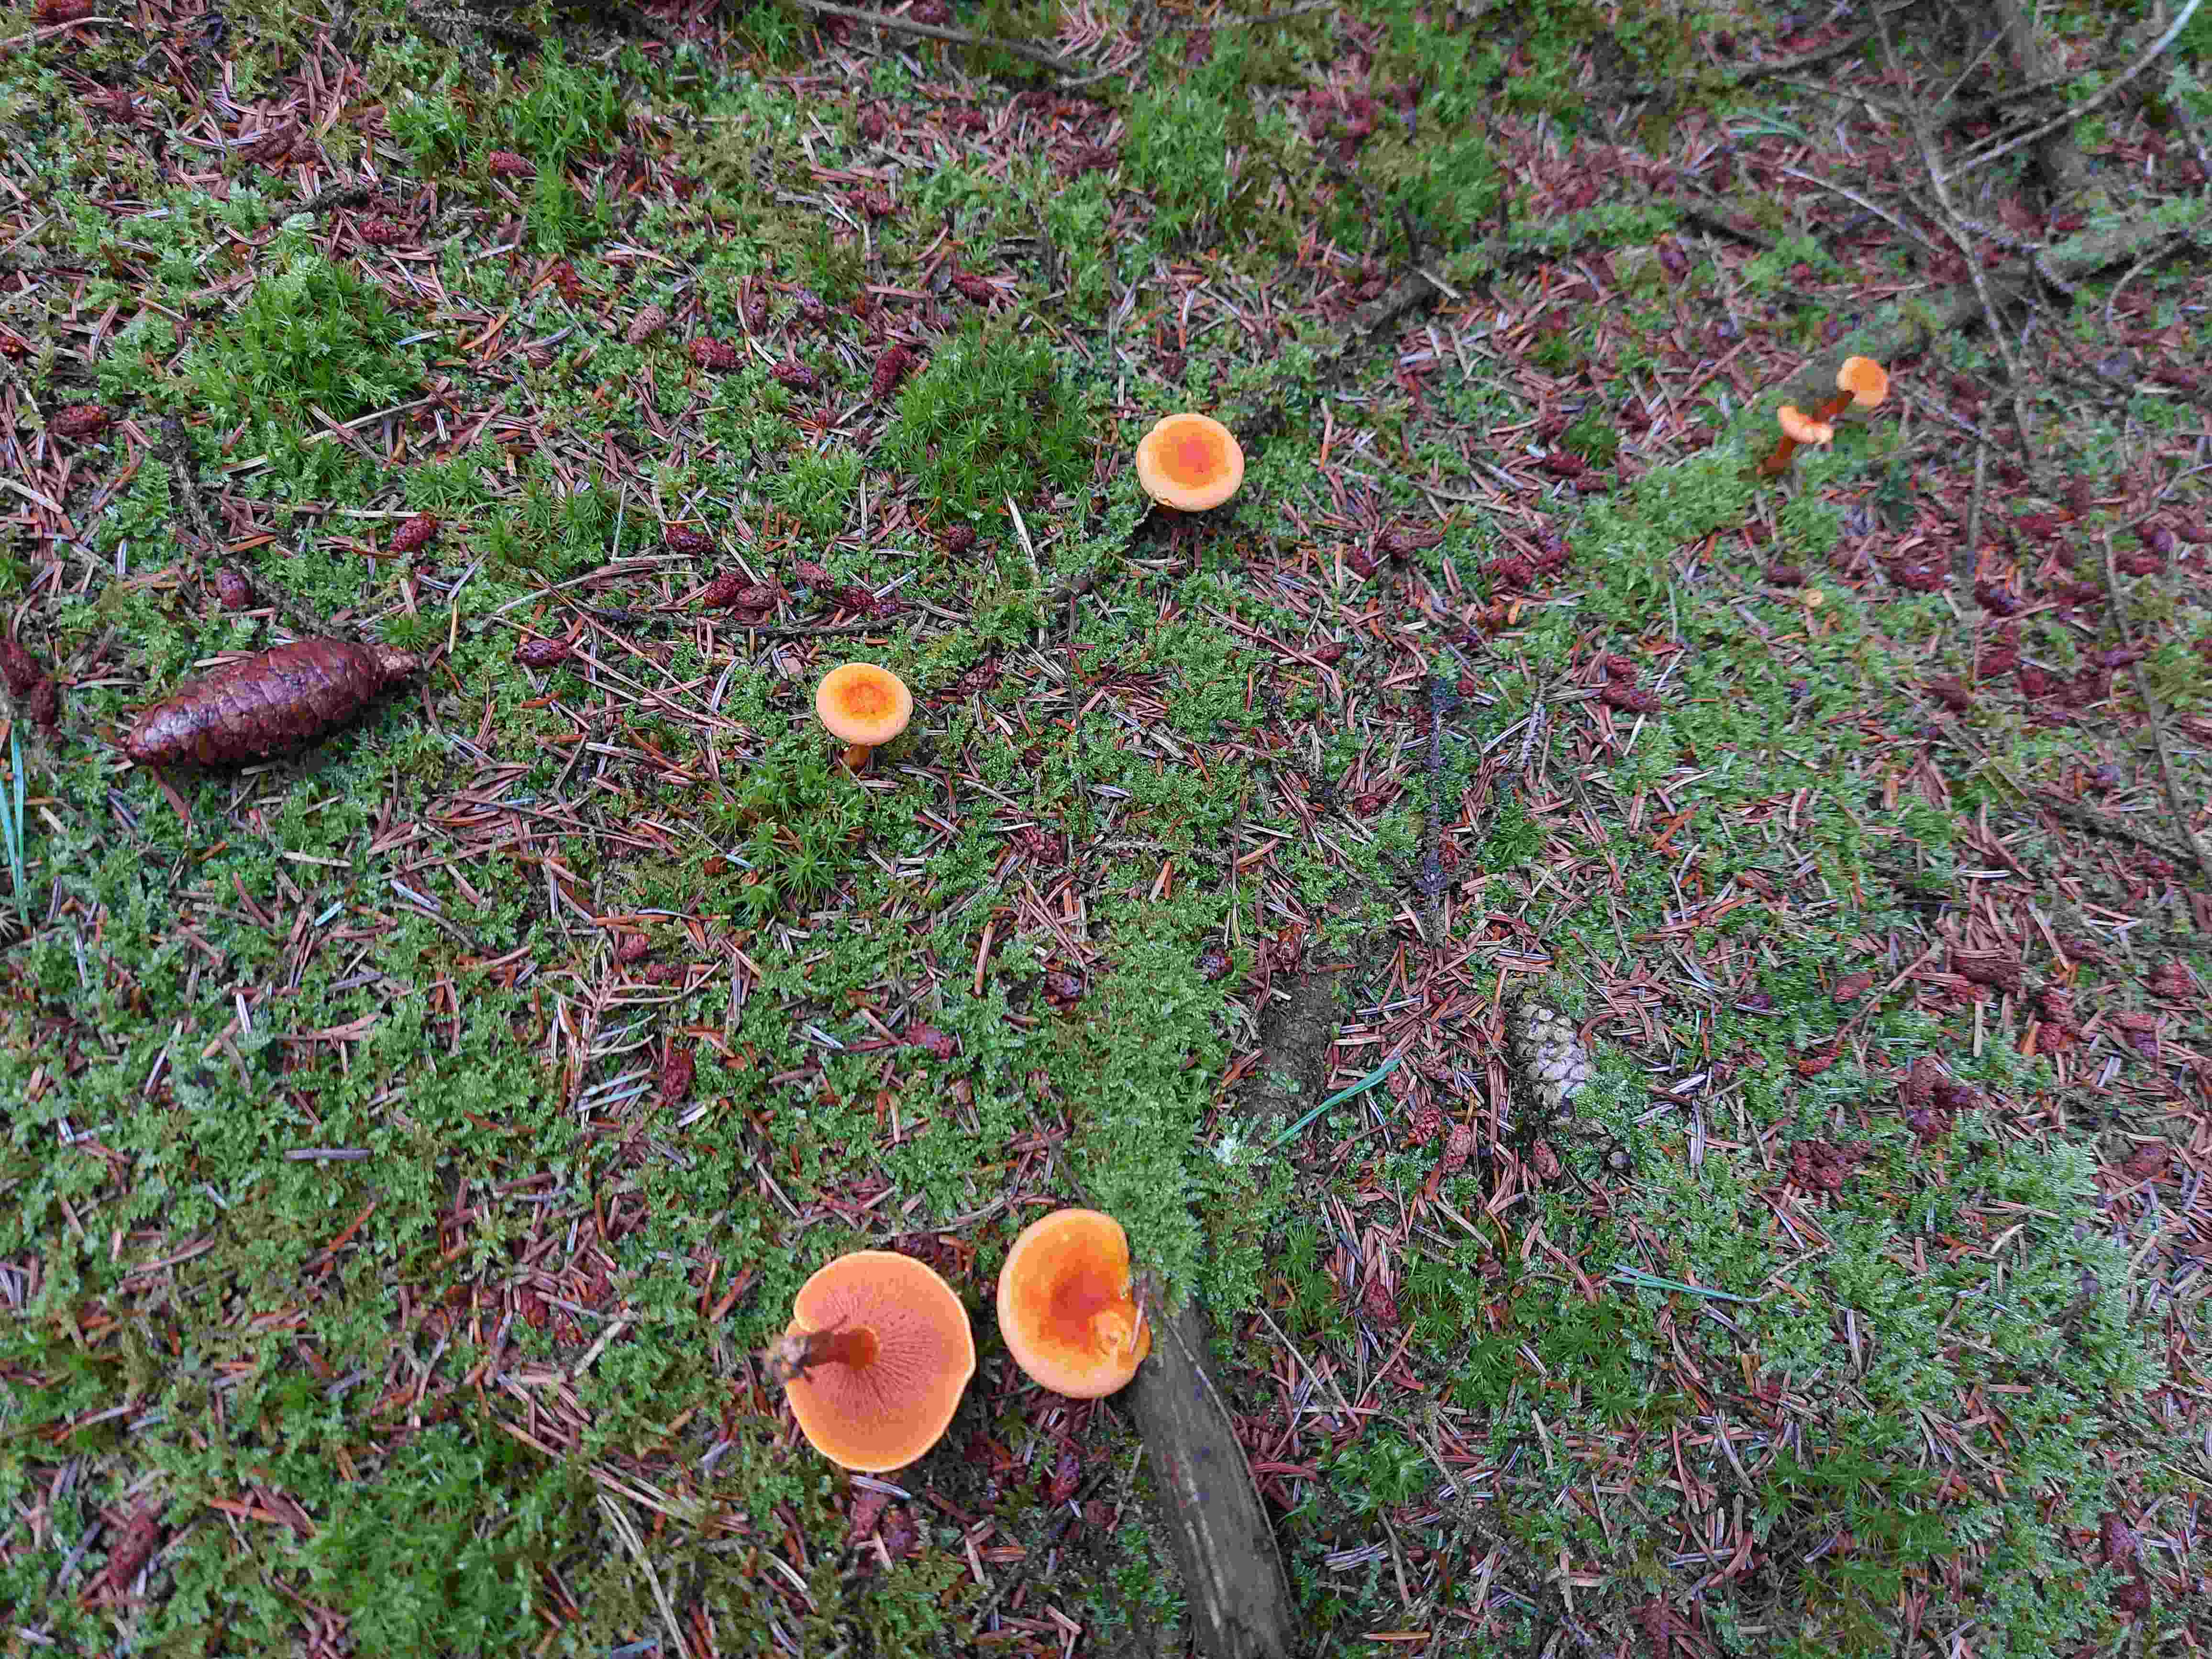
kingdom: Fungi
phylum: Basidiomycota
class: Agaricomycetes
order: Boletales
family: Hygrophoropsidaceae
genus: Hygrophoropsis
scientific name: Hygrophoropsis aurantiaca
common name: almindelig orangekantarel
